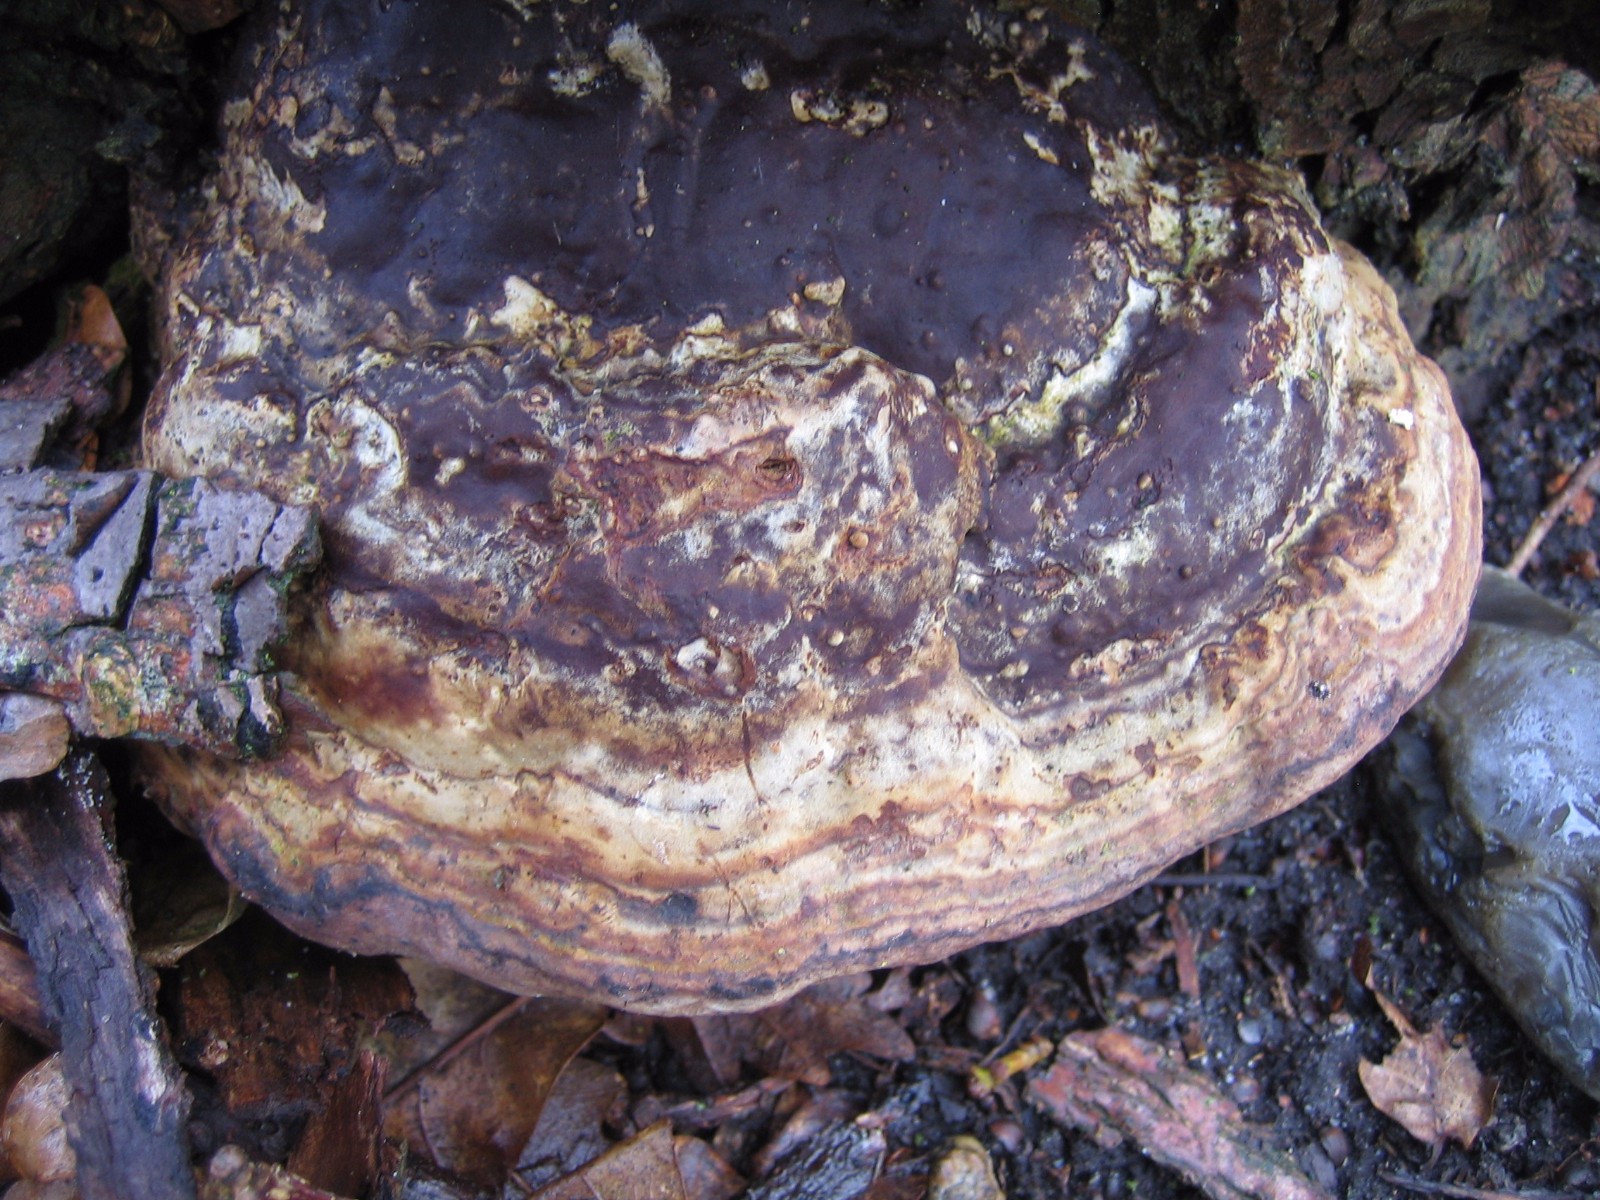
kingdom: Fungi
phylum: Basidiomycota
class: Agaricomycetes
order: Polyporales
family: Polyporaceae
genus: Fomes
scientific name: Fomes fomentarius
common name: tøndersvamp
